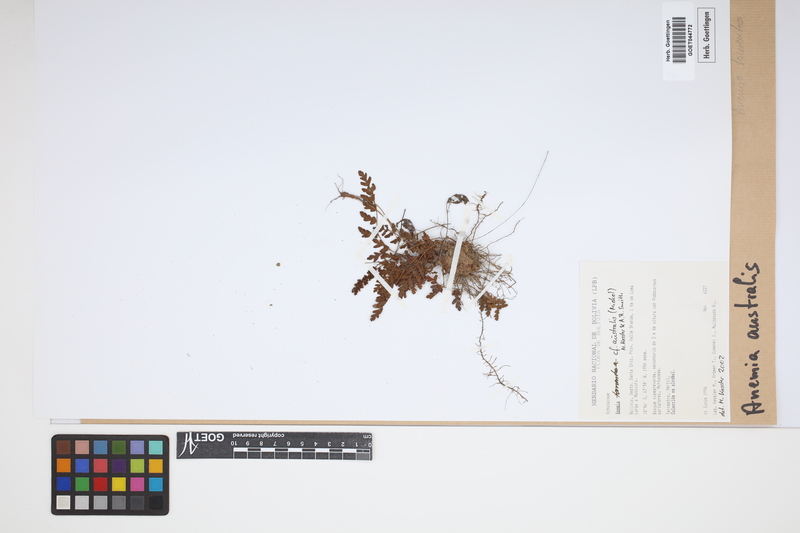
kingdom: Plantae
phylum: Tracheophyta
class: Polypodiopsida
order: Schizaeales
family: Anemiaceae
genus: Anemia
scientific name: Anemia australis
